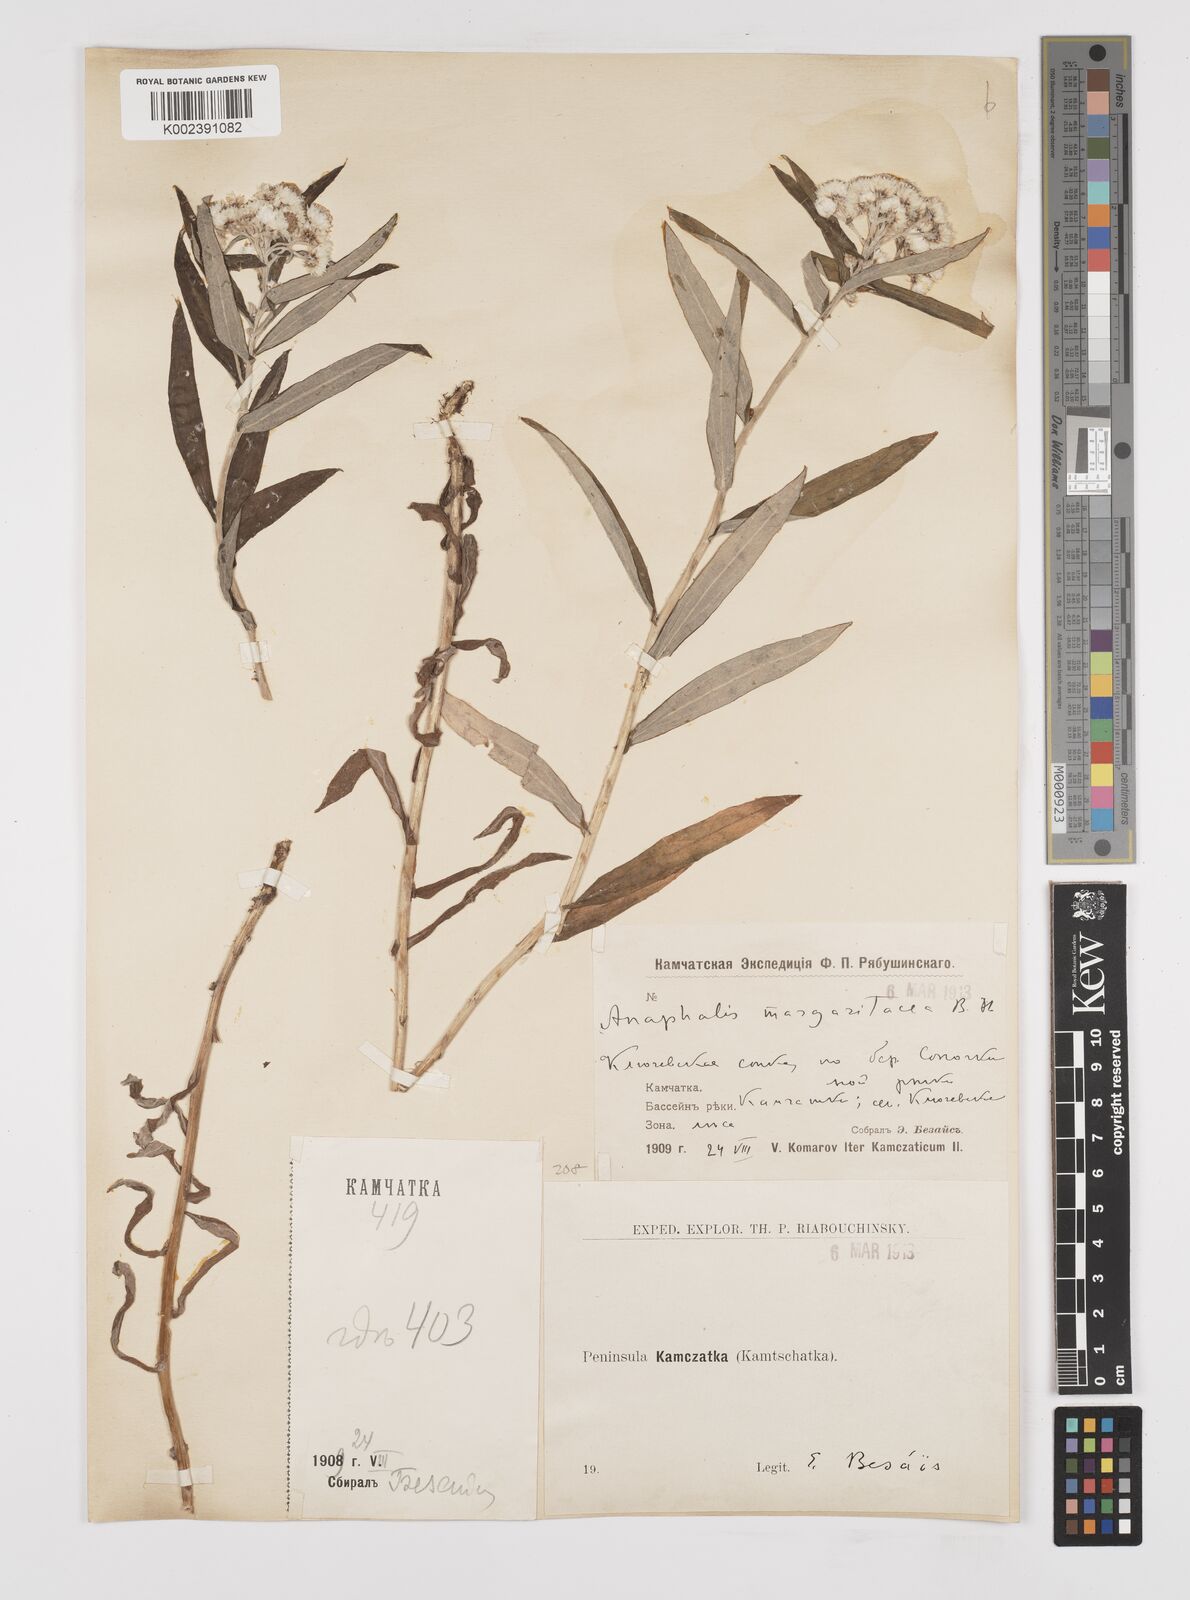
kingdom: Plantae
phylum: Tracheophyta
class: Magnoliopsida
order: Asterales
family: Asteraceae
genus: Anaphalis
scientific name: Anaphalis margaritacea
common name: Pearly everlasting
